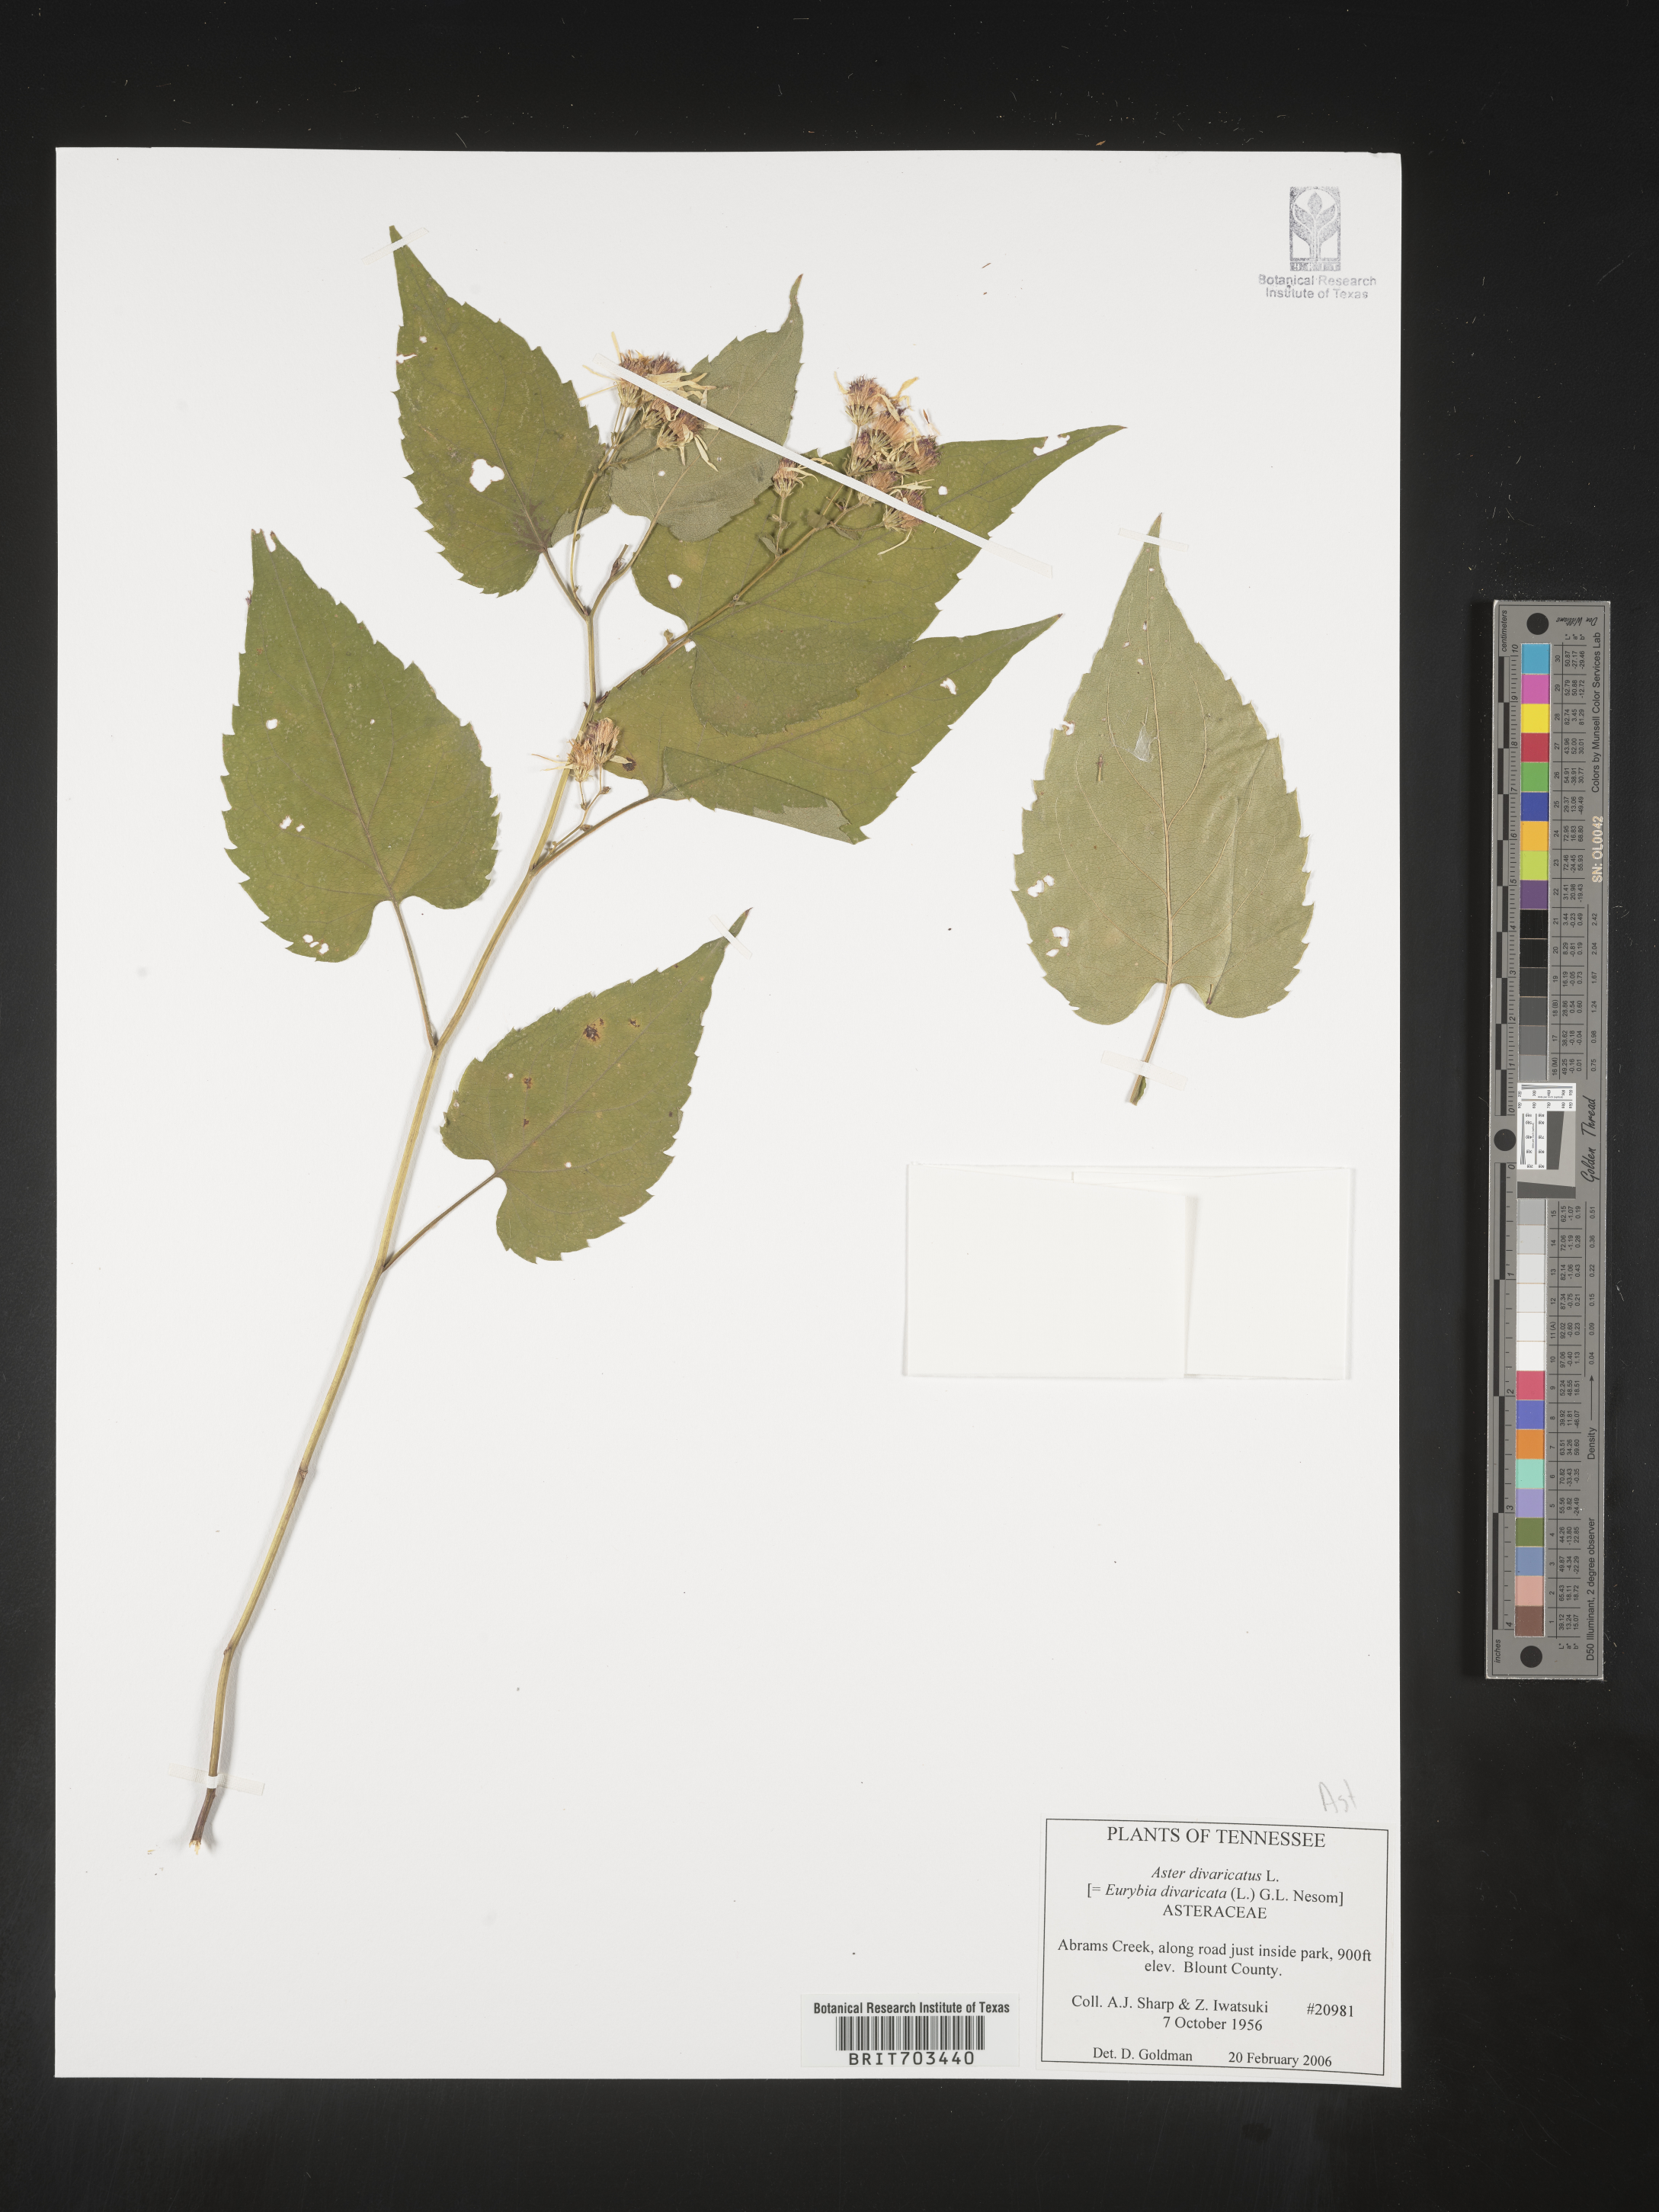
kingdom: Plantae
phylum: Tracheophyta
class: Magnoliopsida
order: Asterales
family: Asteraceae
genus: Eurybia
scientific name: Eurybia divaricata
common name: White wood aster
